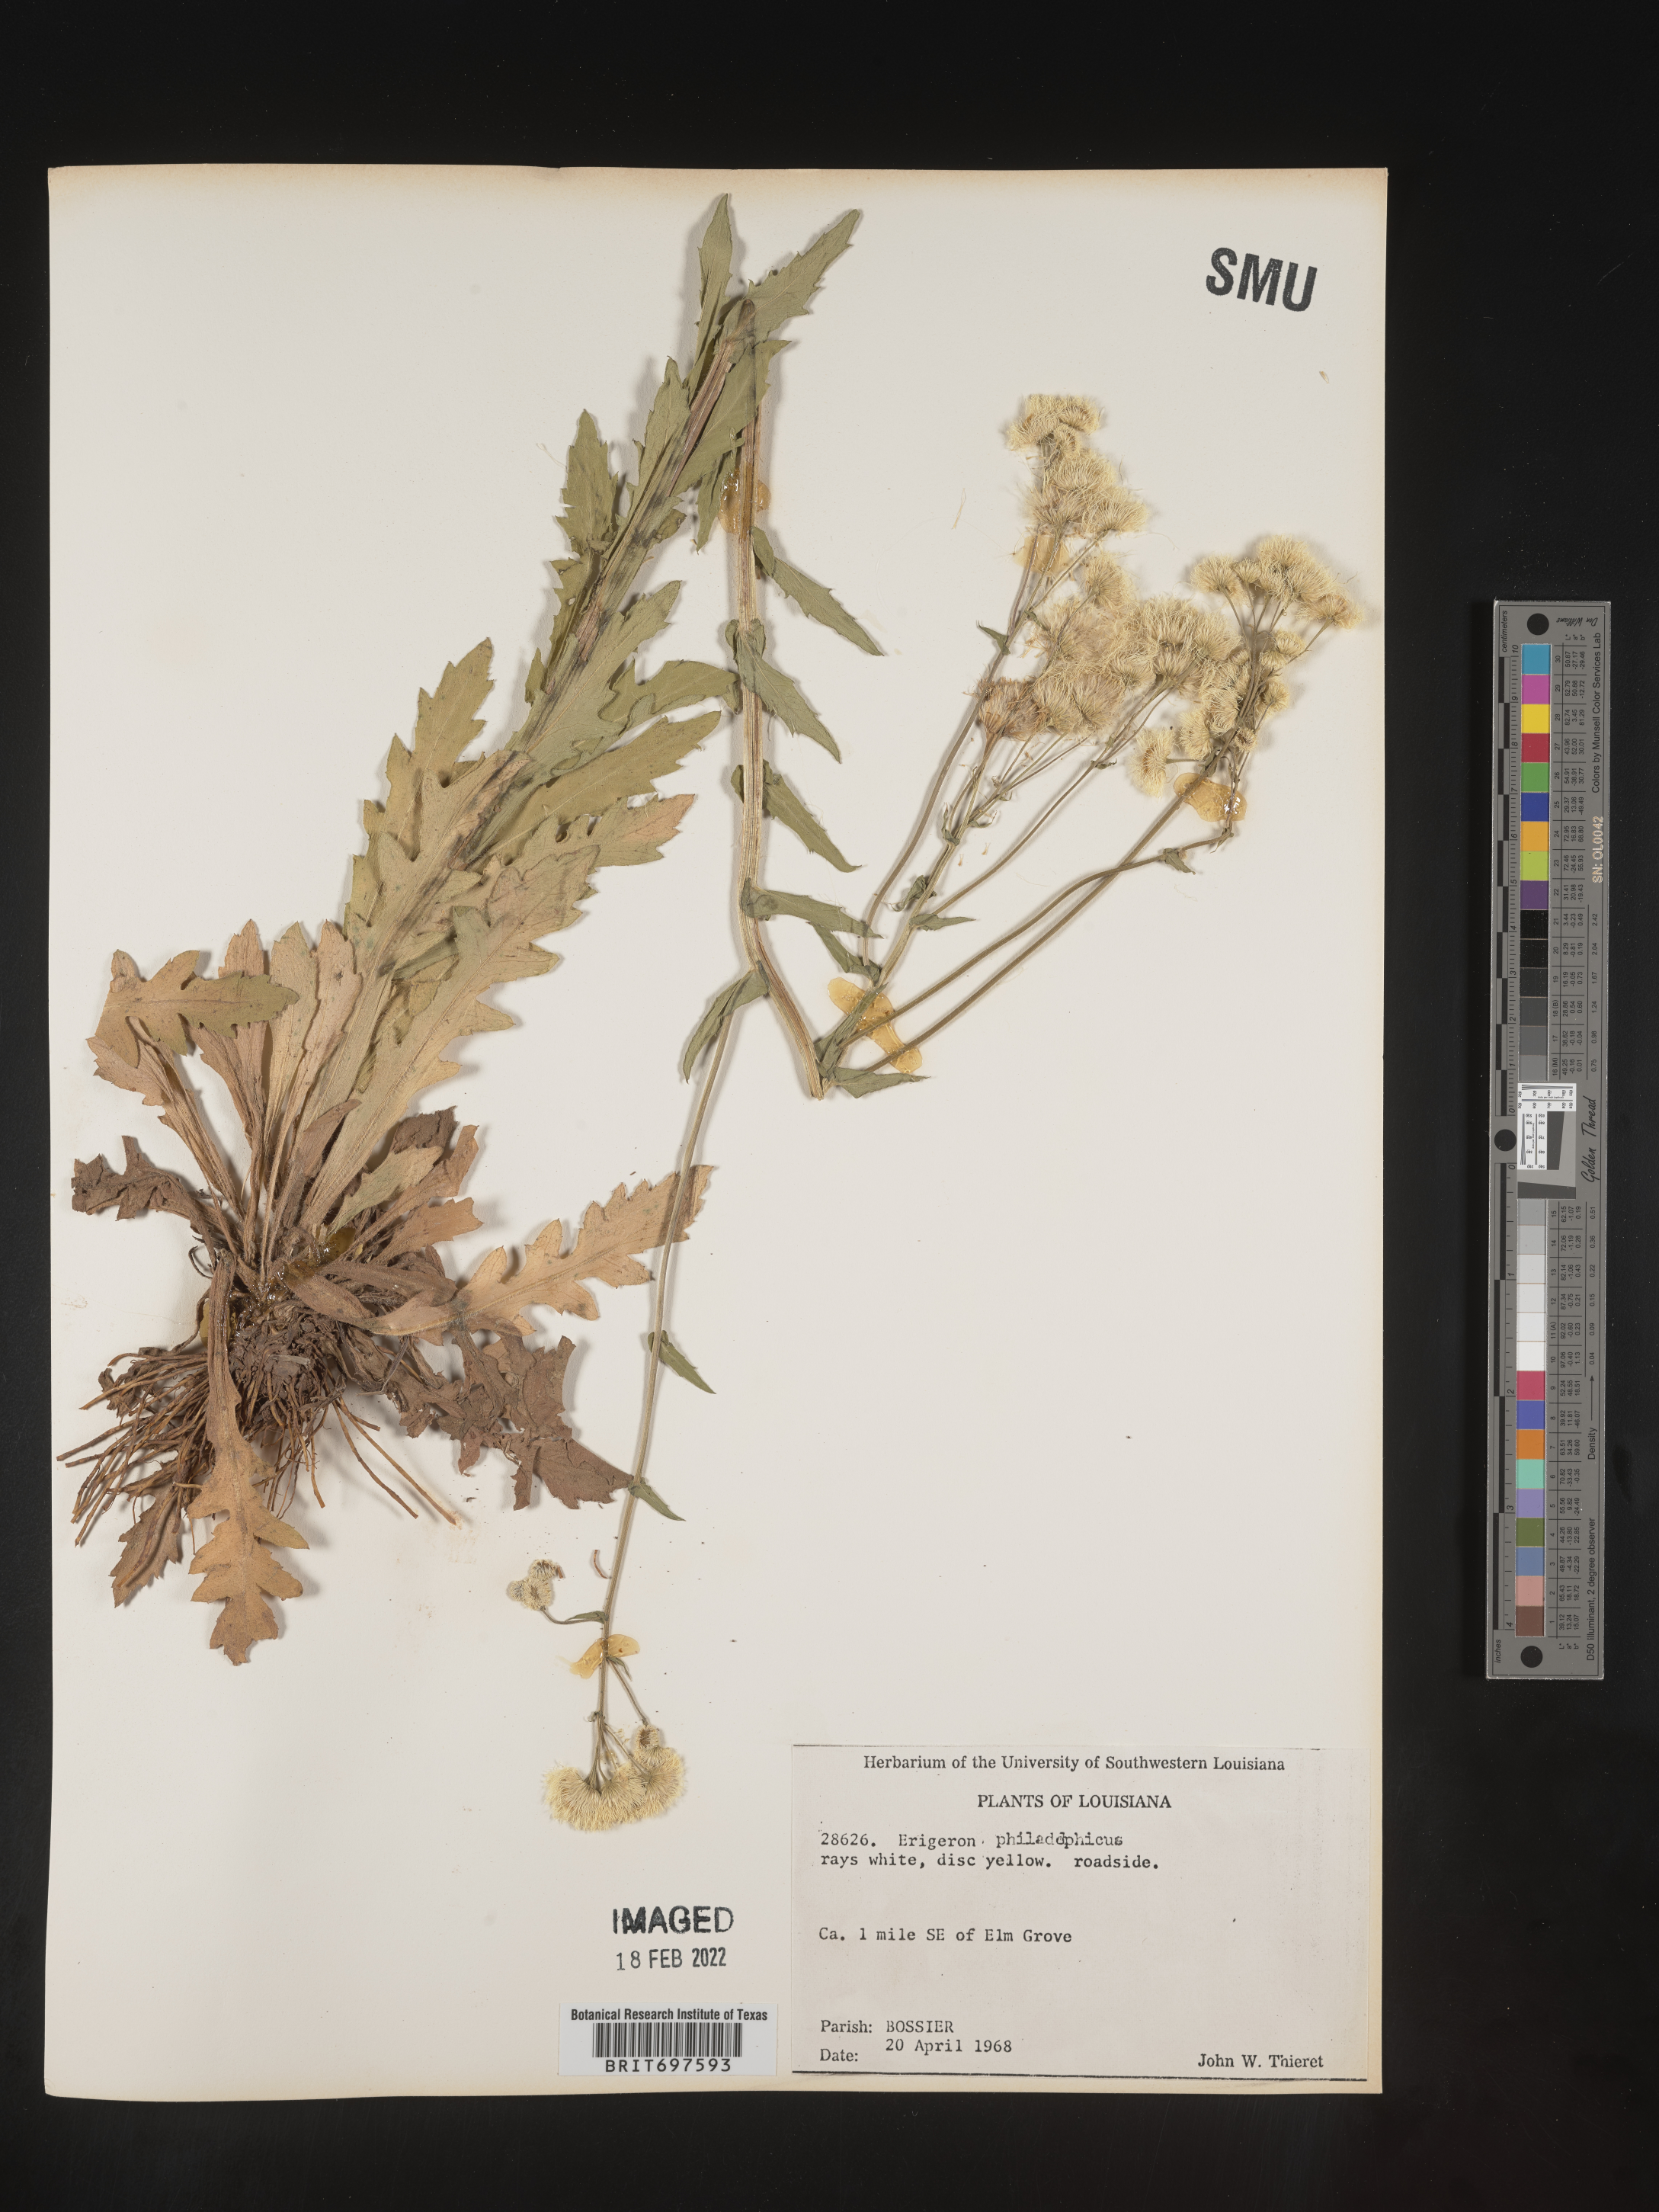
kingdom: Plantae
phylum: Tracheophyta
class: Magnoliopsida
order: Asterales
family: Asteraceae
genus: Erigeron
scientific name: Erigeron philadelphicus
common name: Robin's-plantain
